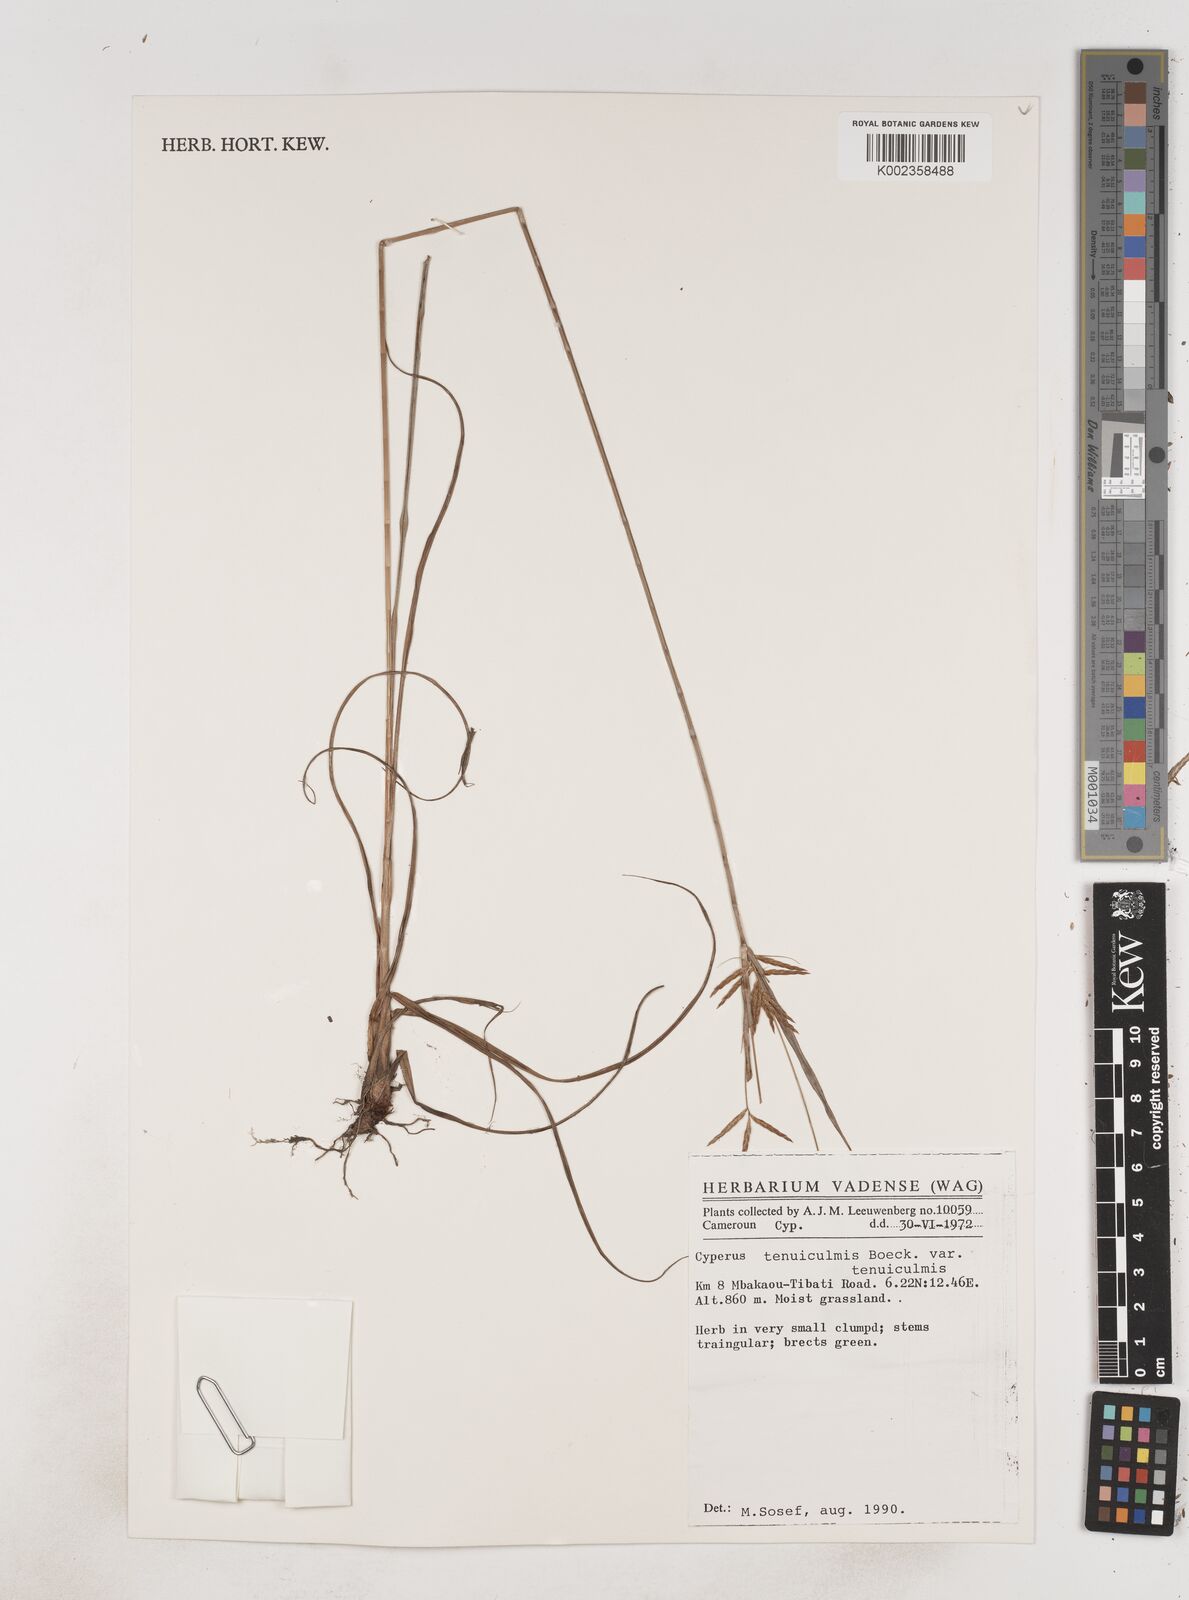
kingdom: Plantae
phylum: Tracheophyta
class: Liliopsida
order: Poales
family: Cyperaceae
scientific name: Cyperaceae
